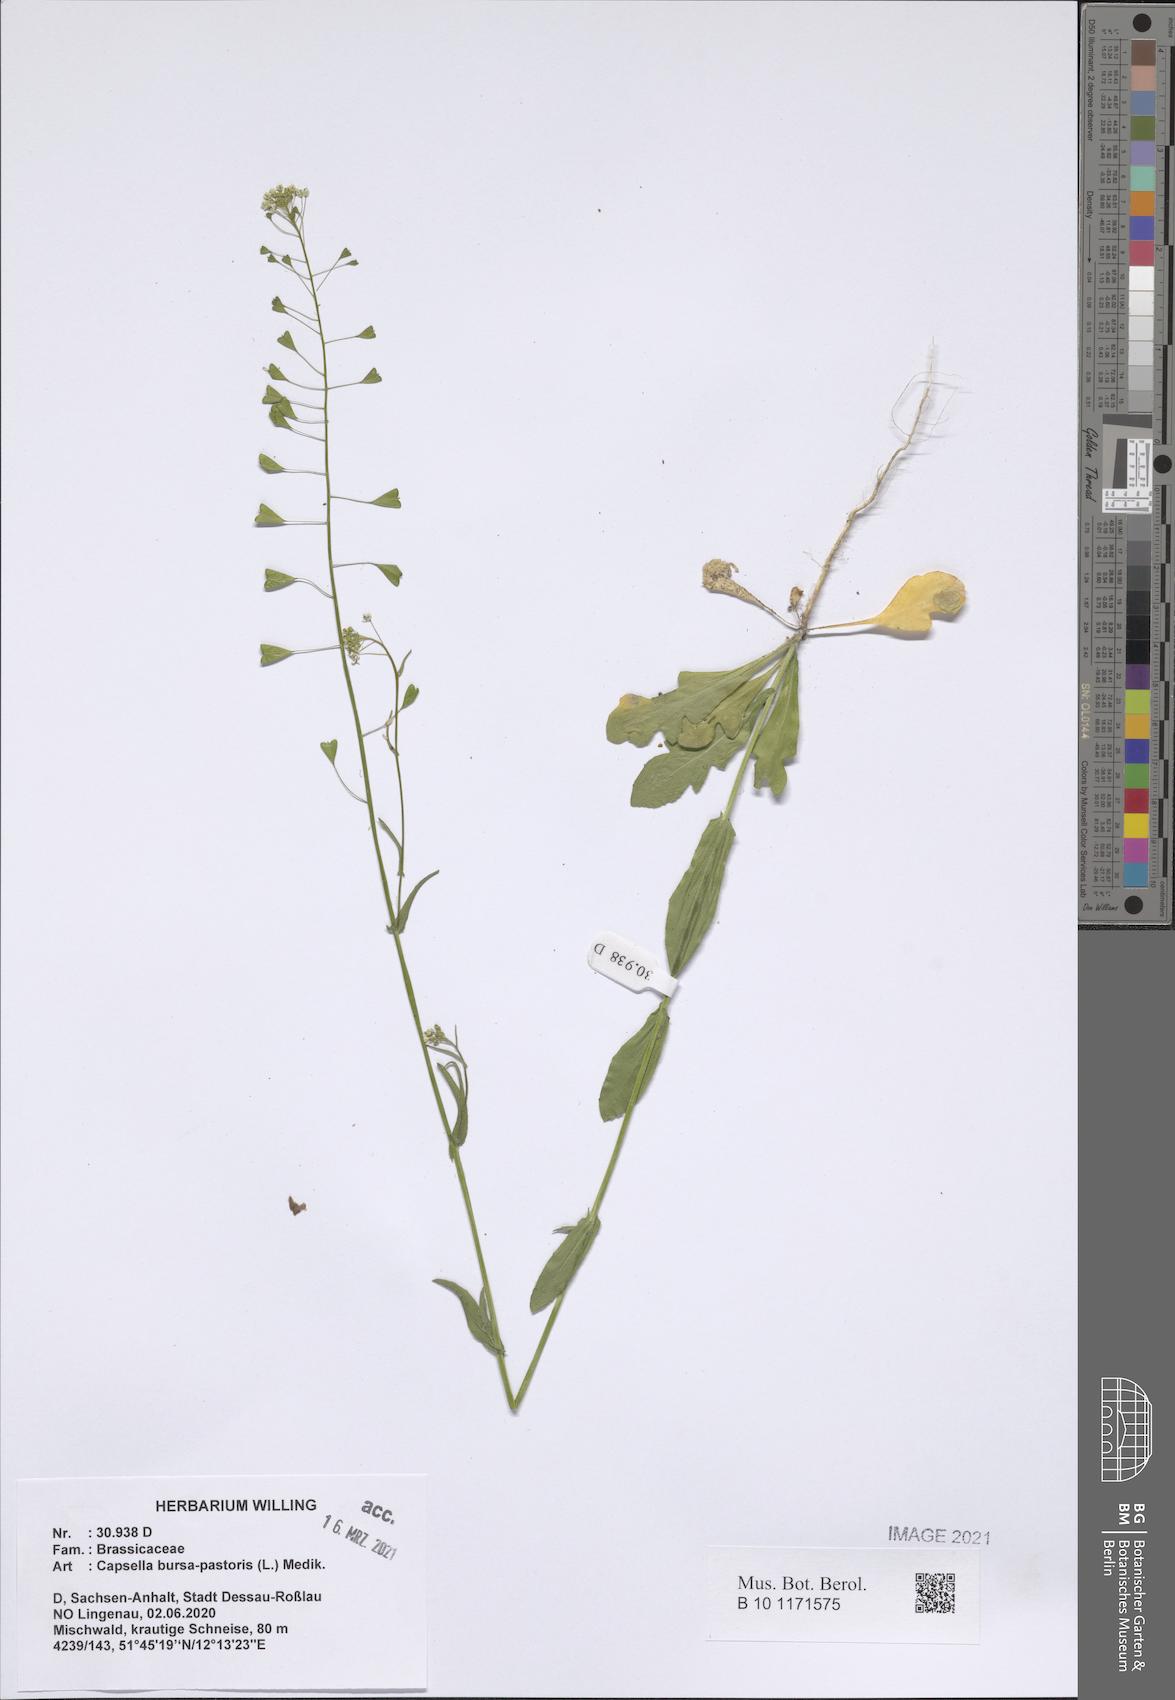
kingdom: Plantae
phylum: Tracheophyta
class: Magnoliopsida
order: Brassicales
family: Brassicaceae
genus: Capsella
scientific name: Capsella bursa-pastoris
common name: Shepherd's purse
